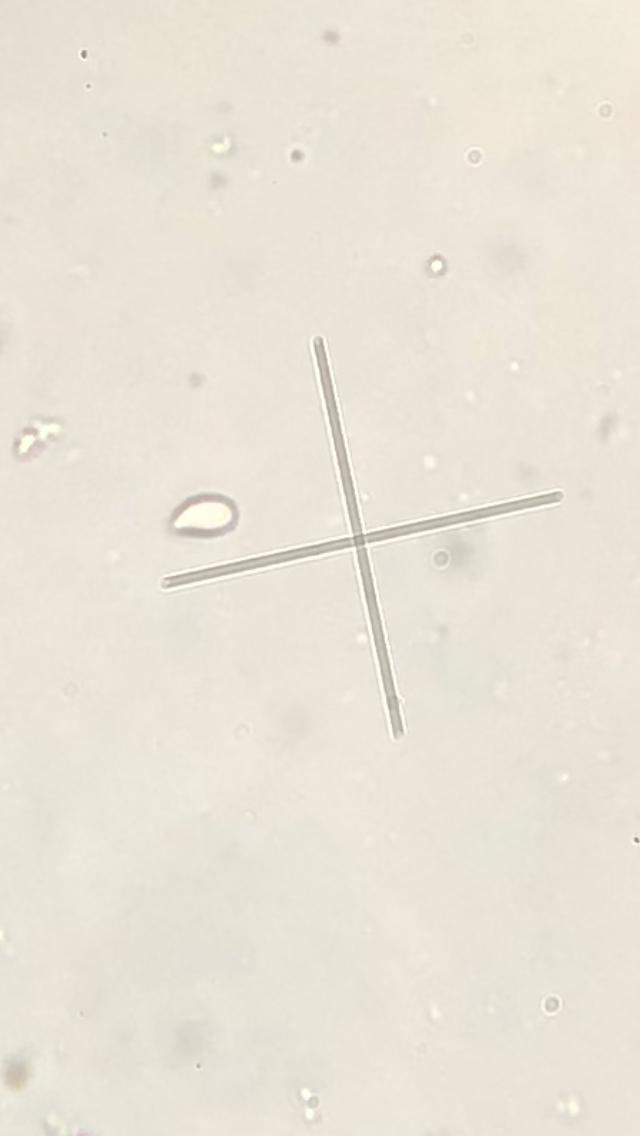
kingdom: Fungi
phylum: Basidiomycota
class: Agaricomycetes
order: Agaricales
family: Omphalotaceae
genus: Gymnopus
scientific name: Gymnopus dryophilus
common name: løv-fladhat
